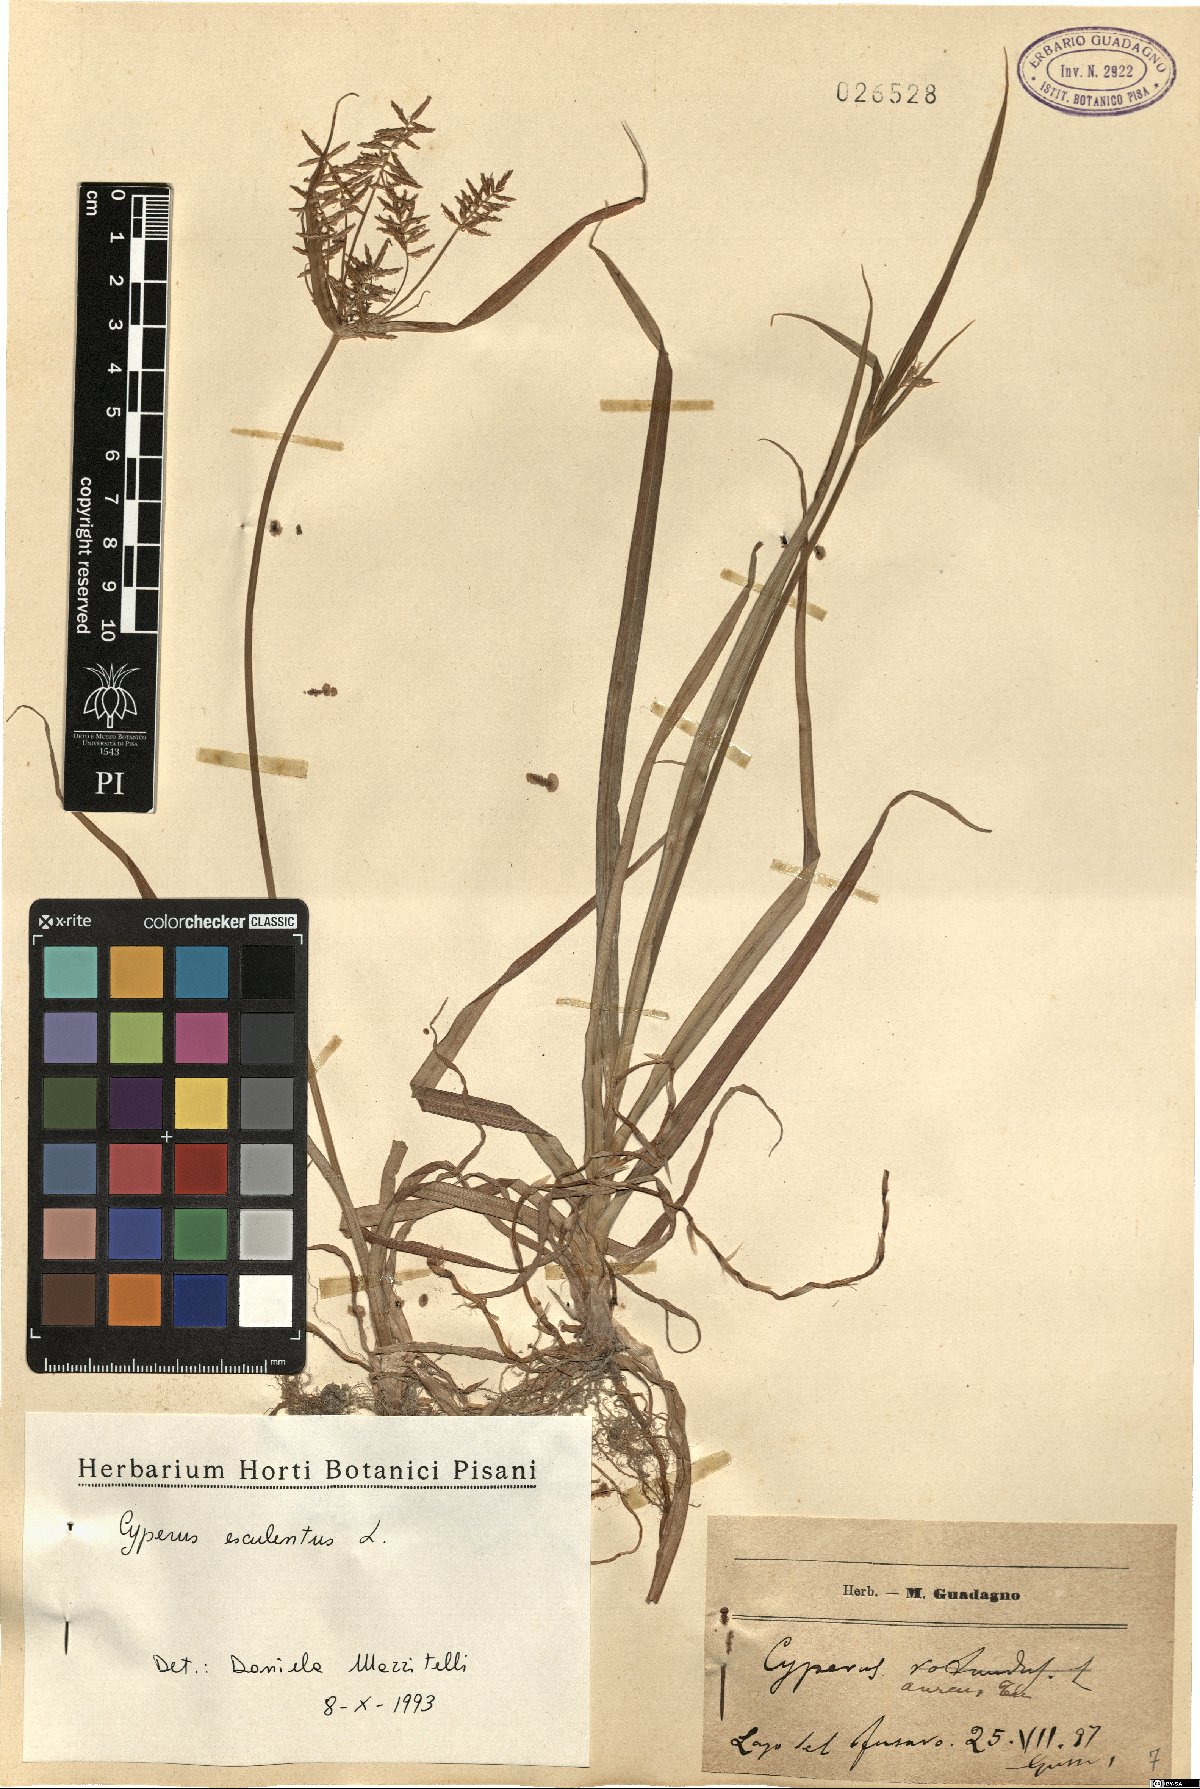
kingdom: Plantae
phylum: Tracheophyta
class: Liliopsida
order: Poales
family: Cyperaceae
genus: Cyperus
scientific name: Cyperus esculentus
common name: Yellow nutsedge
